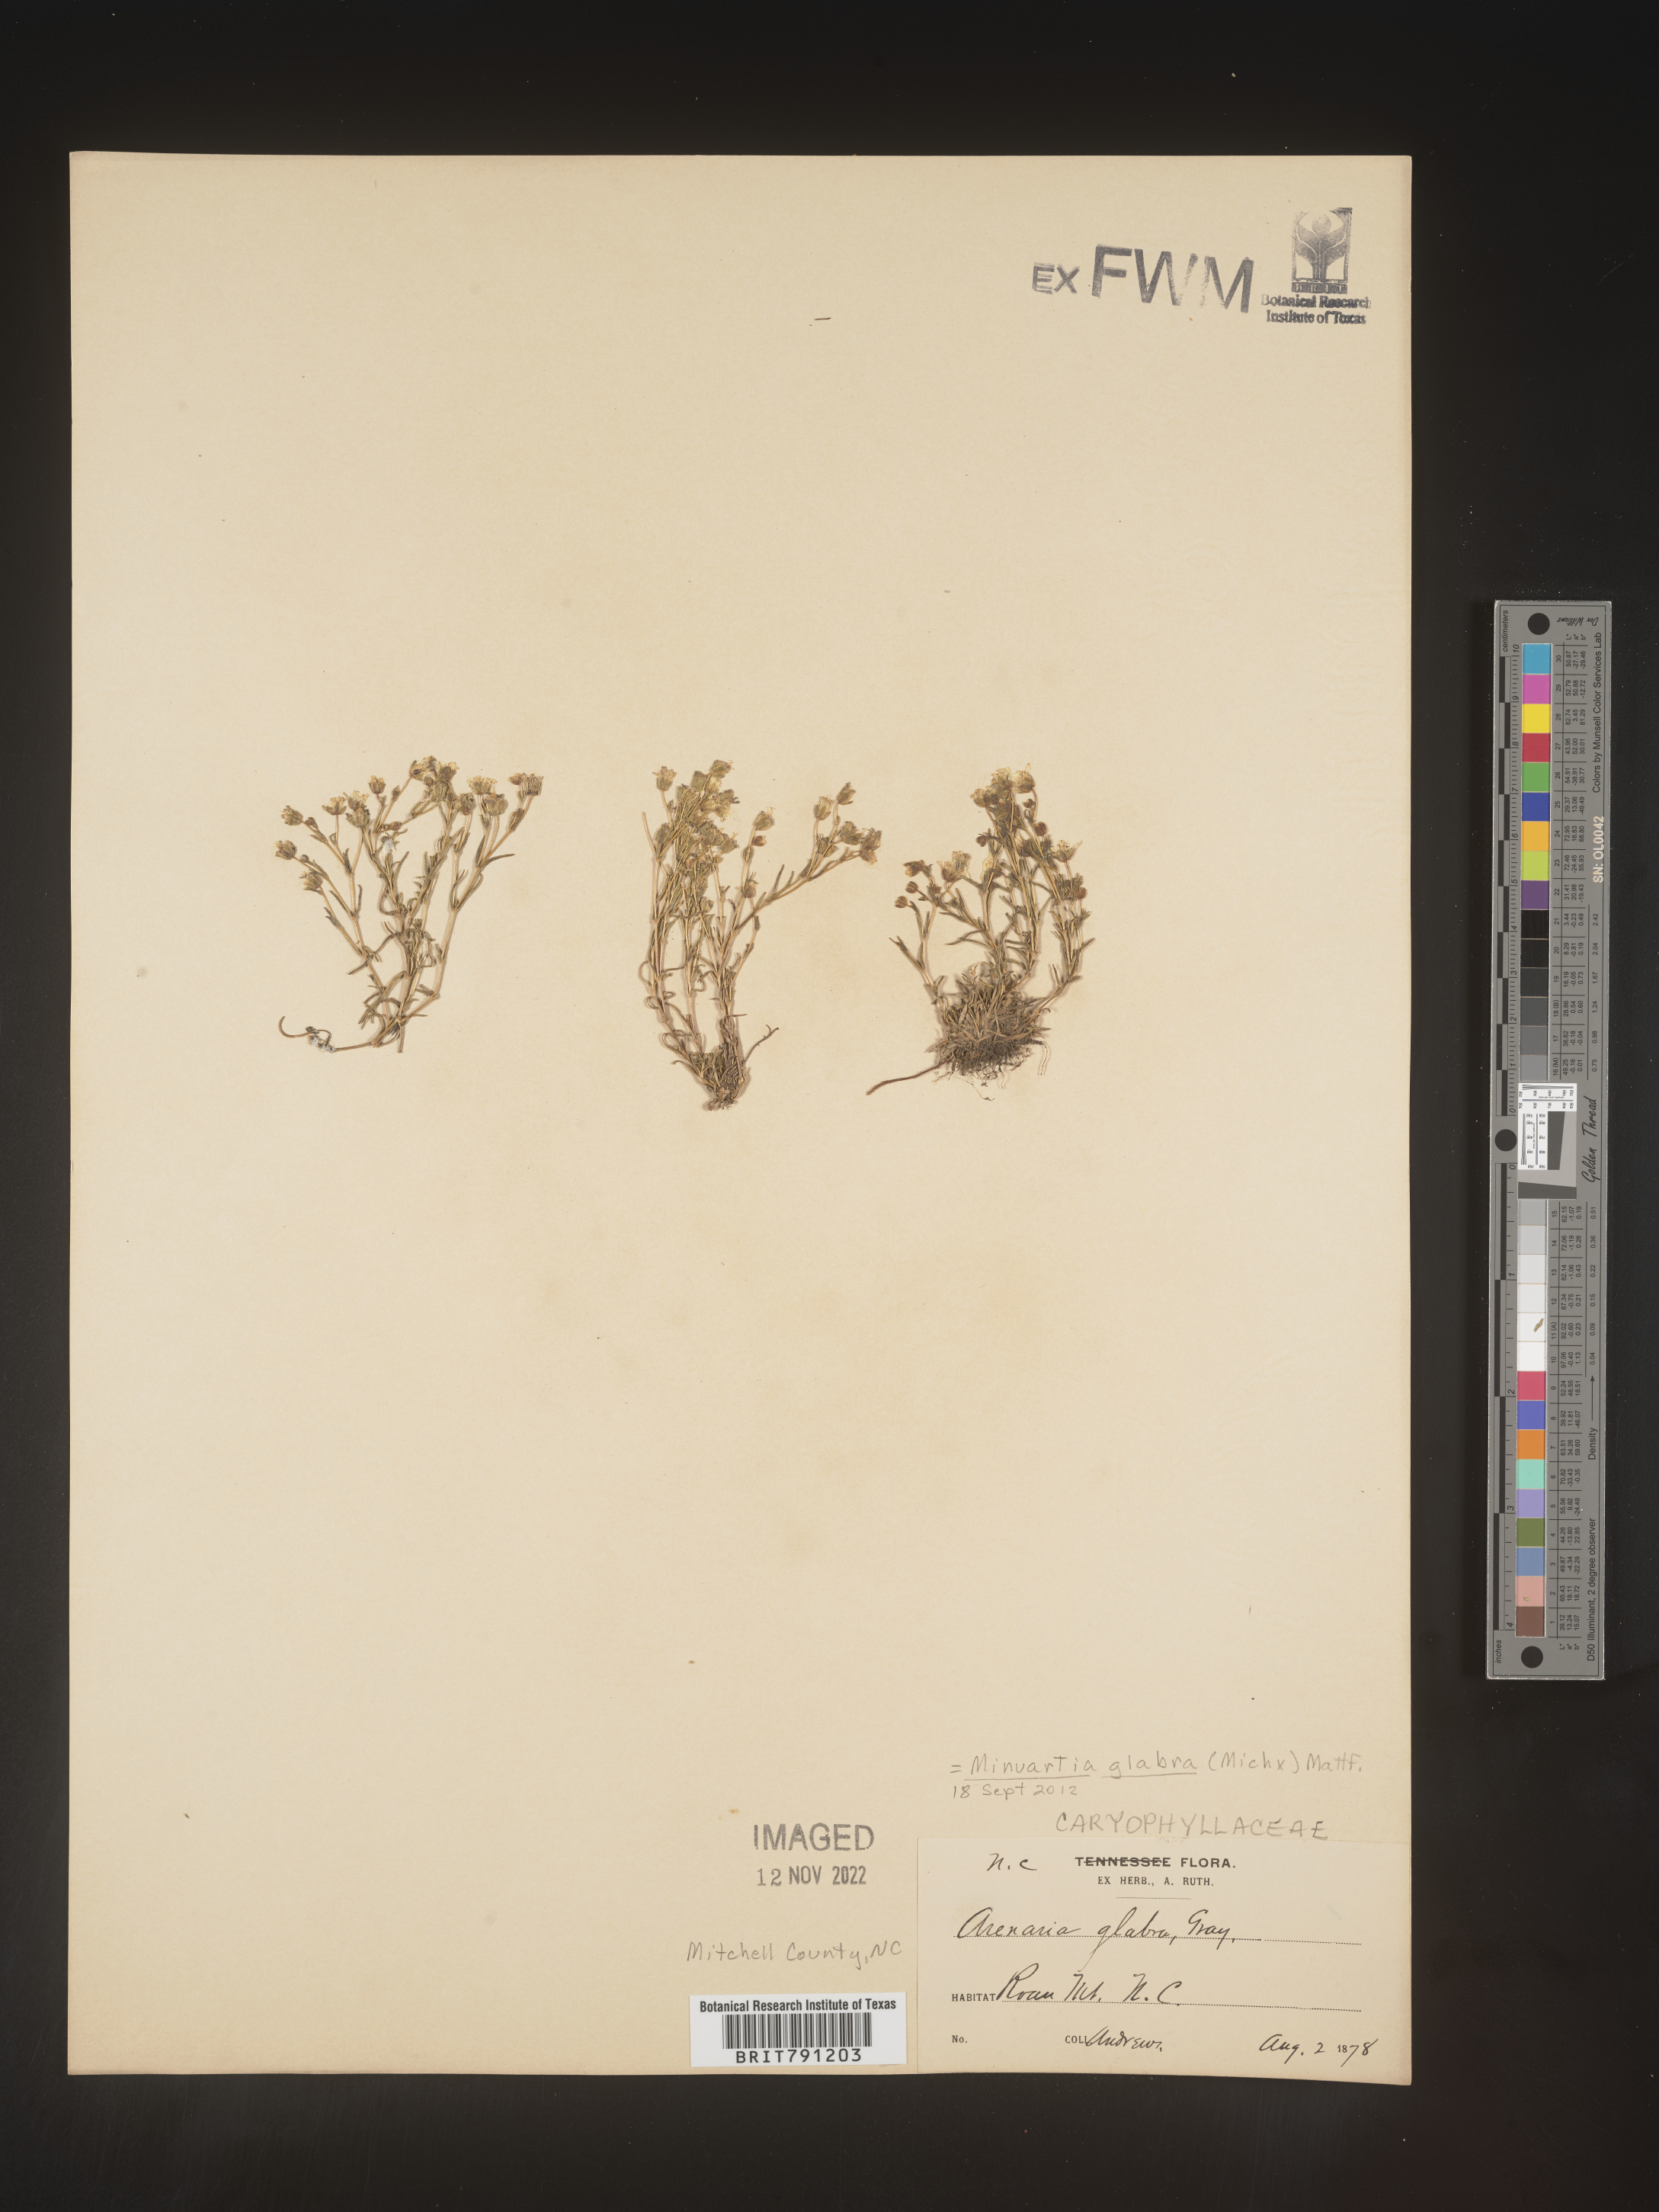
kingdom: Plantae
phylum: Tracheophyta
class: Magnoliopsida
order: Caryophyllales
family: Caryophyllaceae
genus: Geocarpon
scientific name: Geocarpon glabrum
